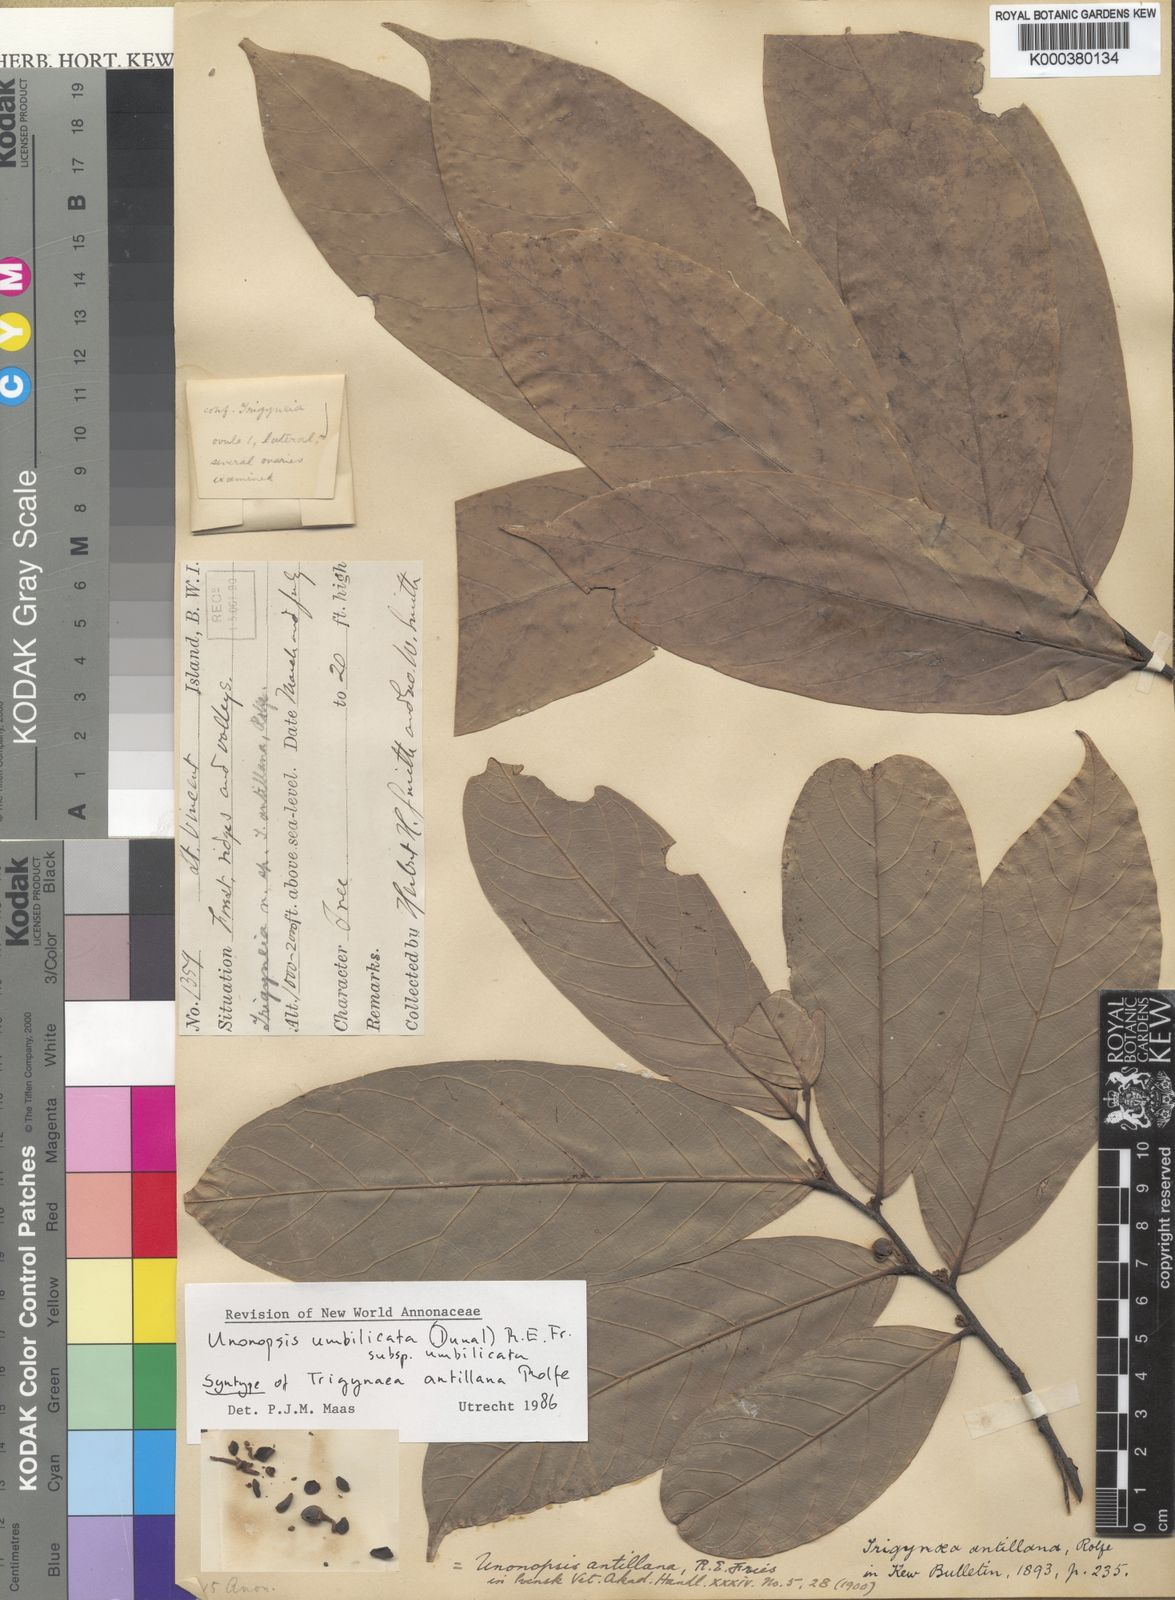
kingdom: Plantae
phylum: Tracheophyta
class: Magnoliopsida
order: Magnoliales
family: Annonaceae
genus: Unonopsis
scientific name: Unonopsis guatterioides
